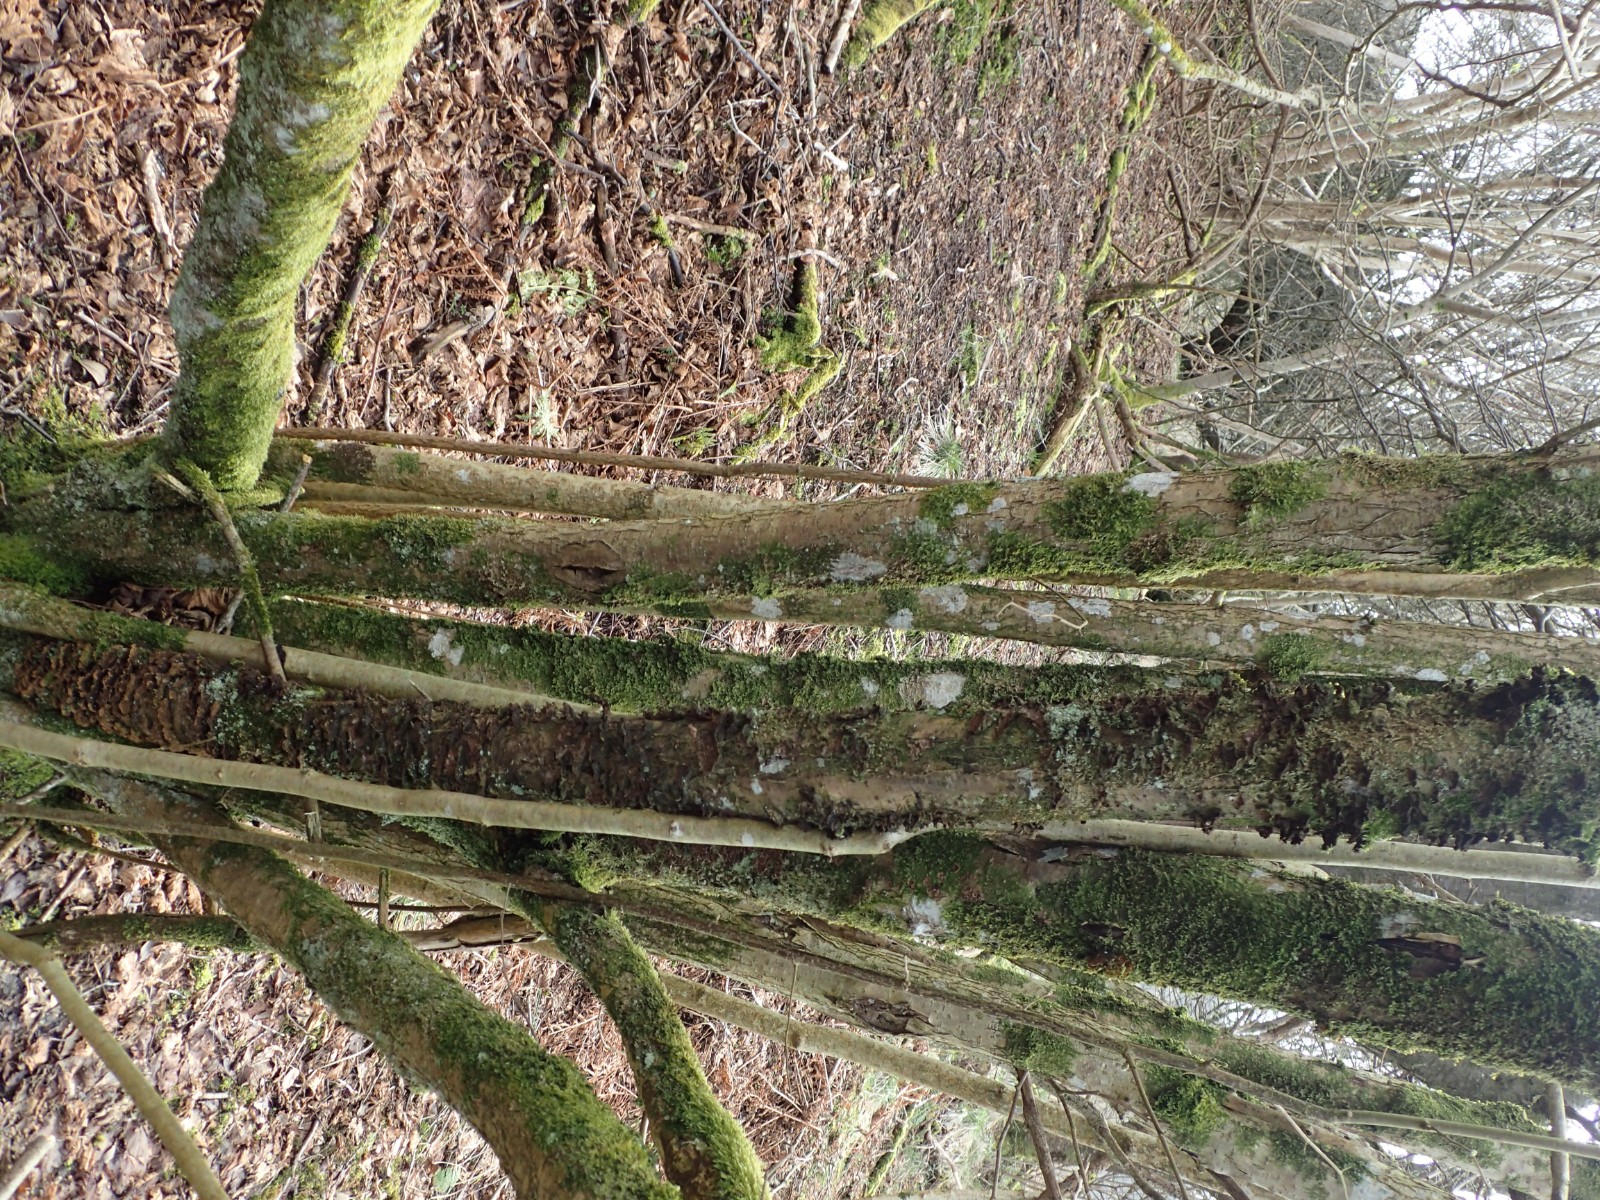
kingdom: Fungi
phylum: Basidiomycota
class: Agaricomycetes
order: Hymenochaetales
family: Hymenochaetaceae
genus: Hydnoporia
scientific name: Hydnoporia tabacina
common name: tobaksbrun ruslædersvamp
